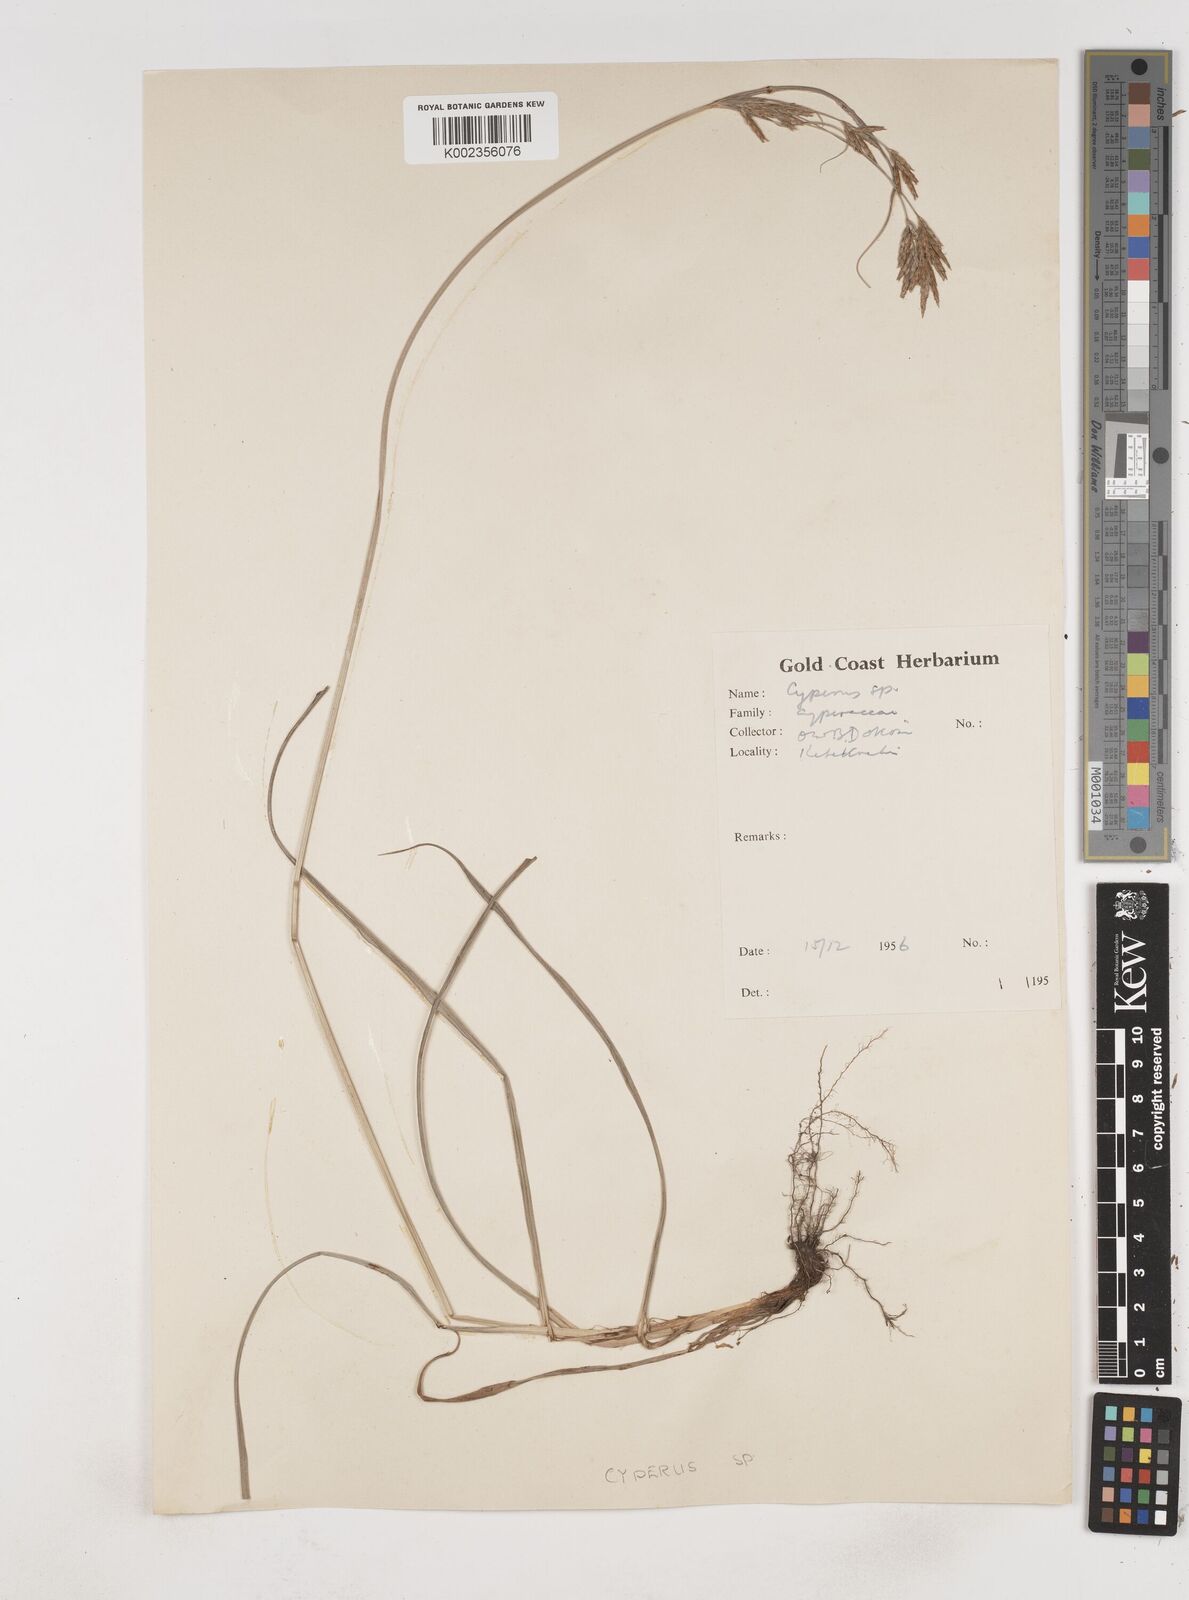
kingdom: Plantae
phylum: Tracheophyta
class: Liliopsida
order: Poales
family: Cyperaceae
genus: Cyperus
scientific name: Cyperus tenuiculmis
